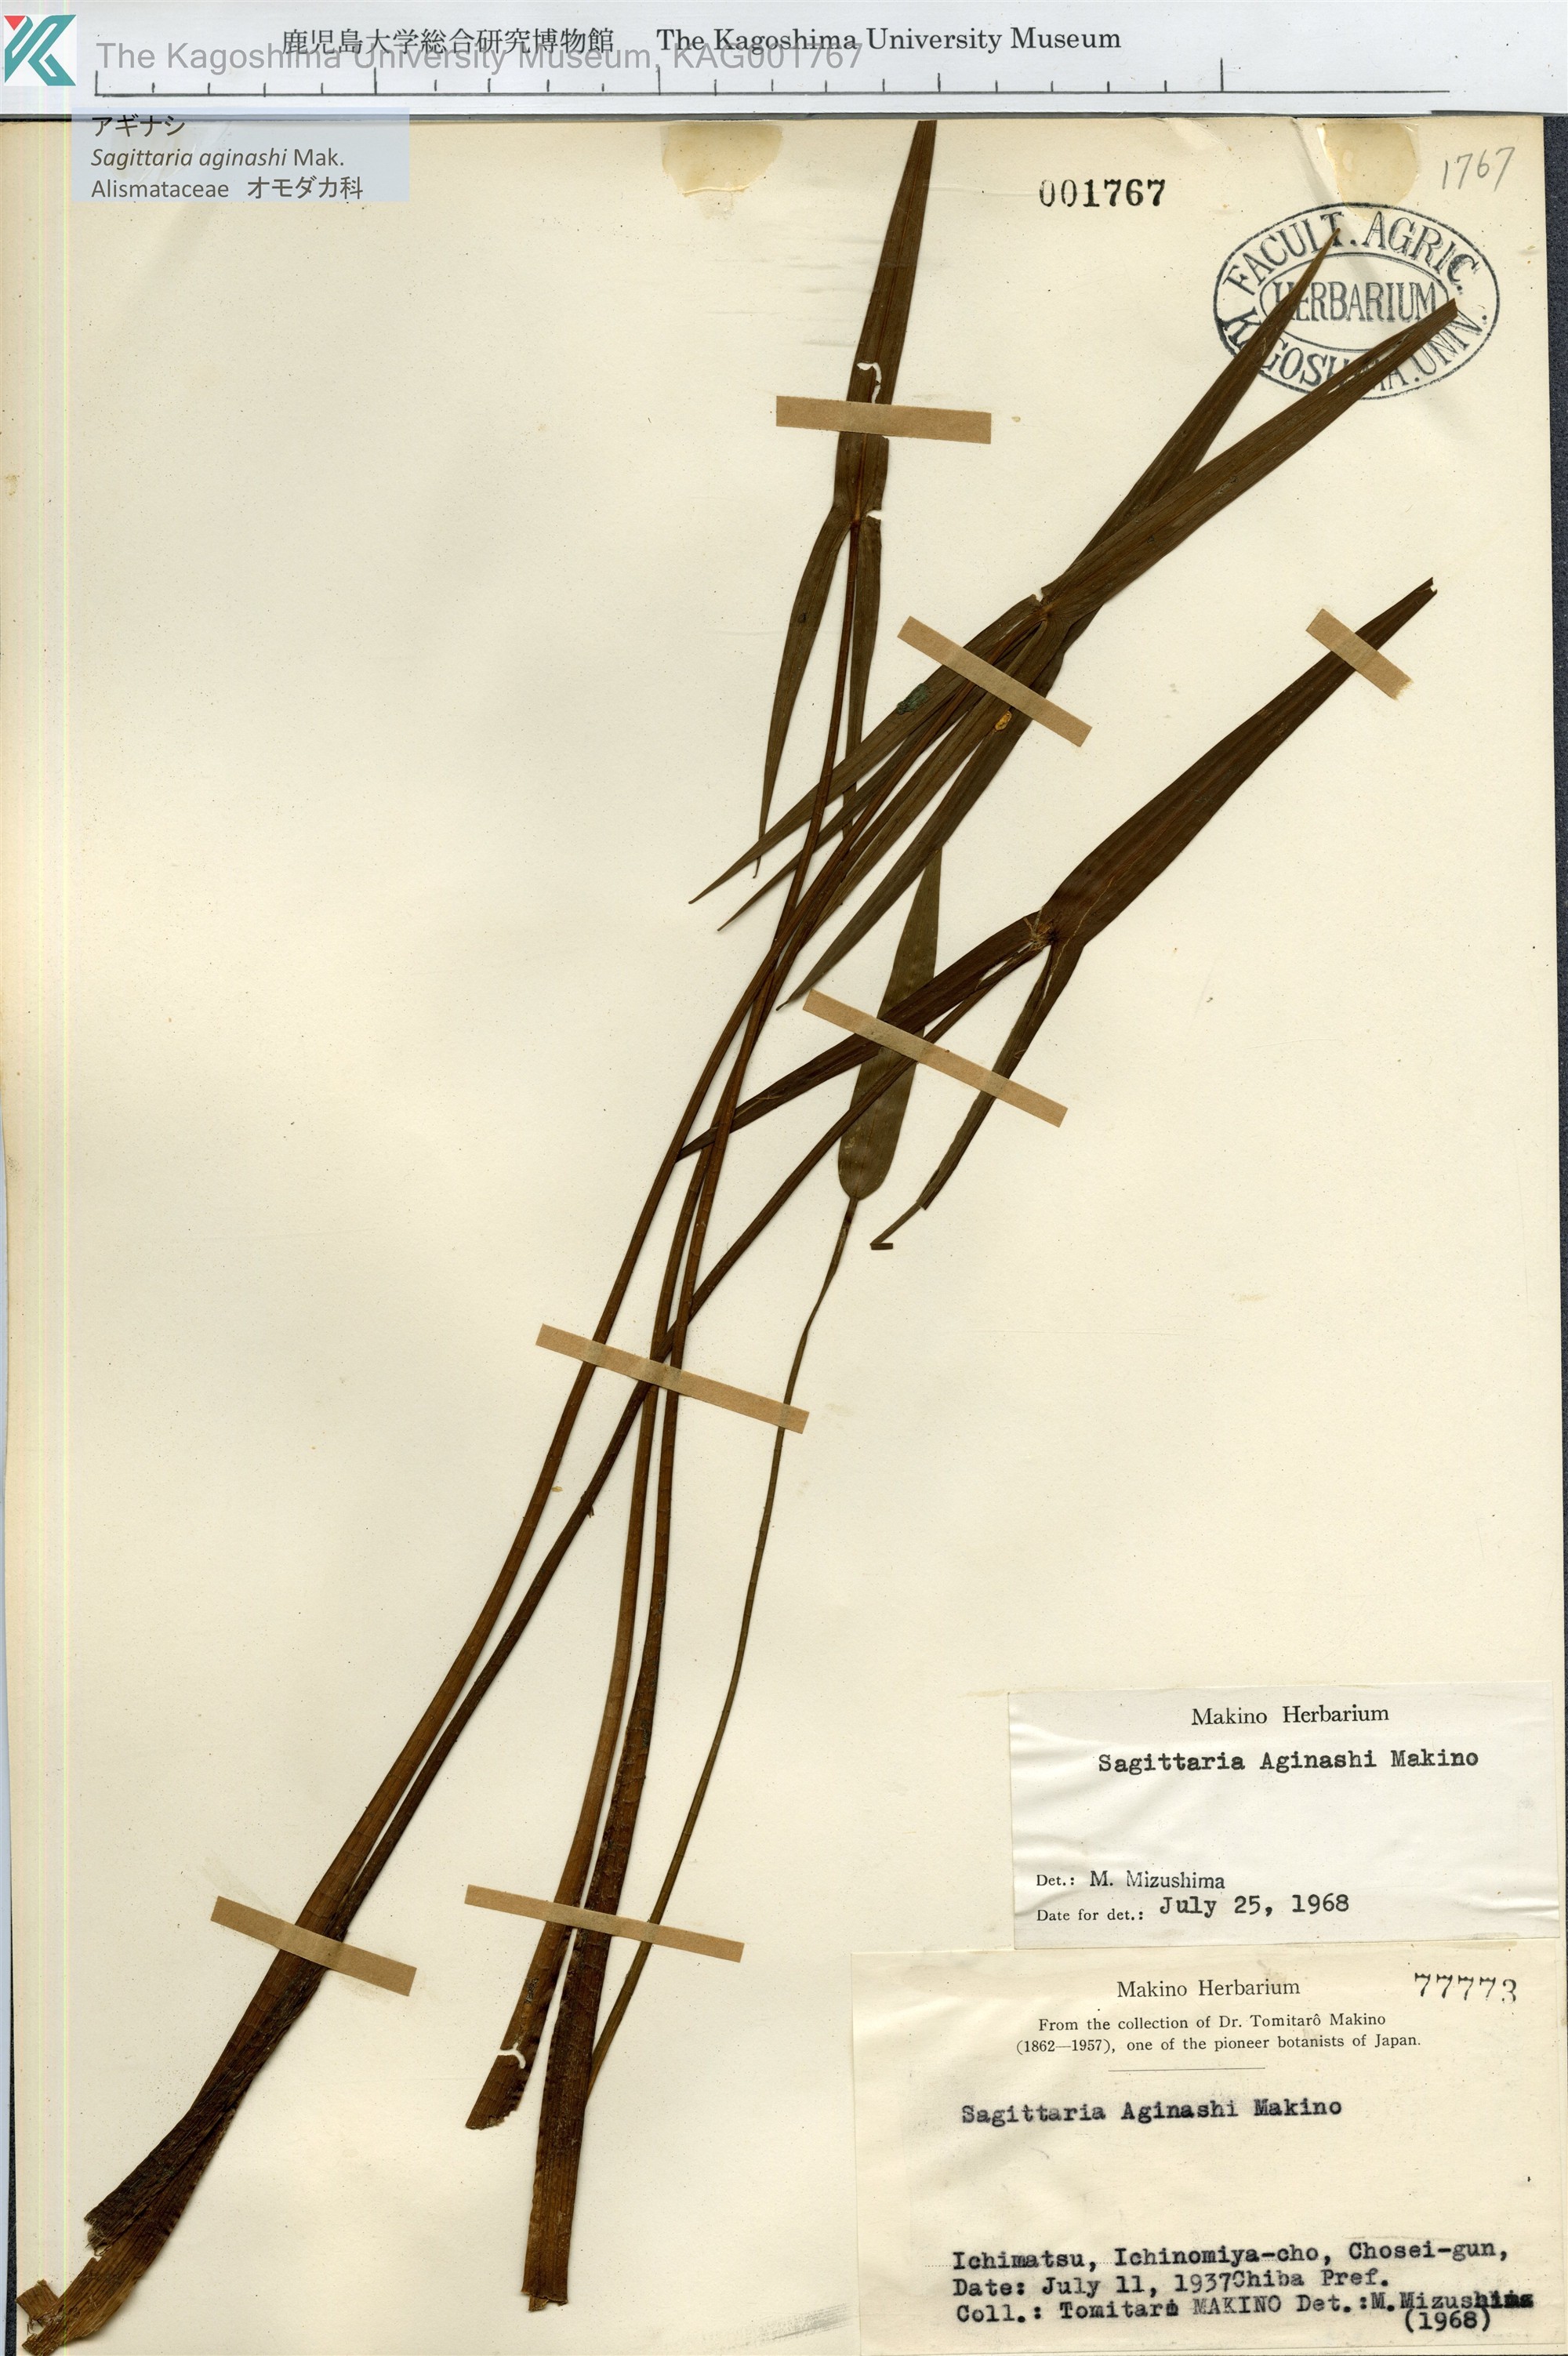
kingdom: Plantae
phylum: Tracheophyta
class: Liliopsida
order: Alismatales
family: Alismataceae
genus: Sagittaria
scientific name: Sagittaria aginashi
